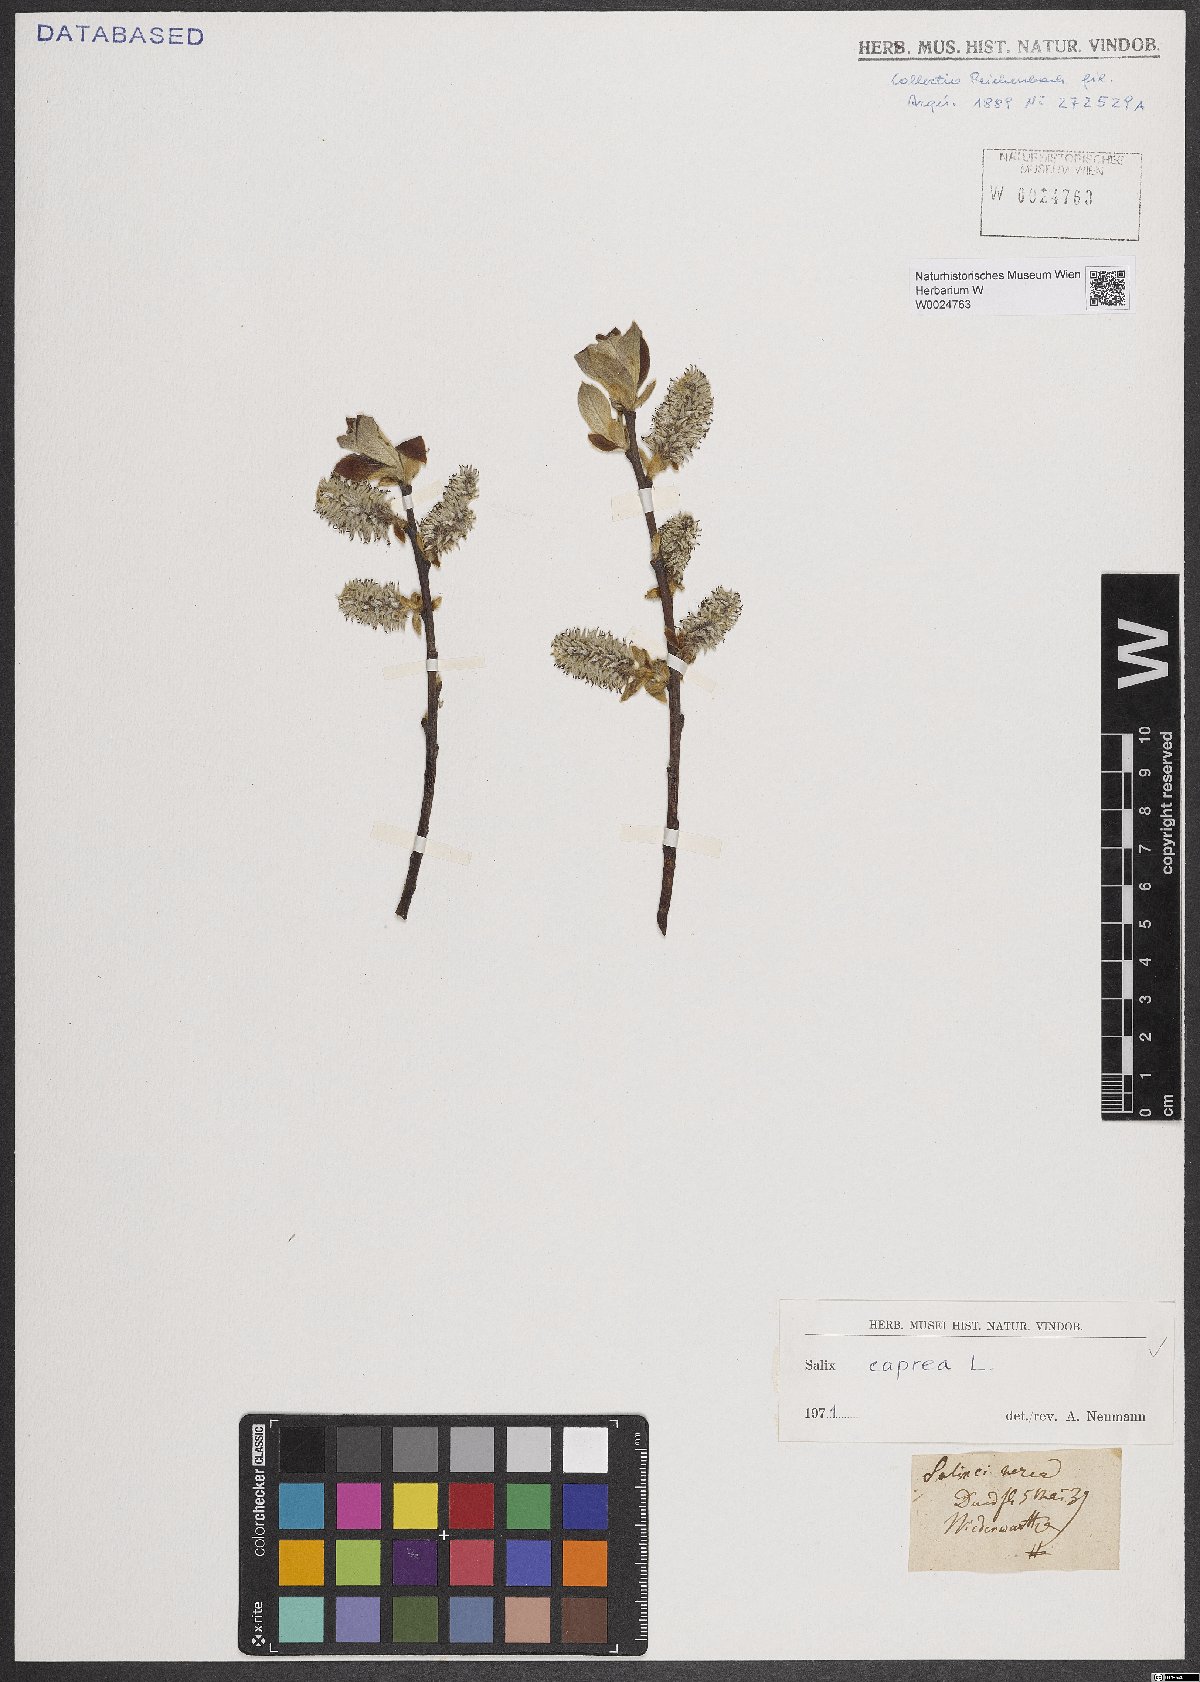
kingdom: Plantae
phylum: Tracheophyta
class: Magnoliopsida
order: Malpighiales
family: Salicaceae
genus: Salix
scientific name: Salix caprea
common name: Goat willow
